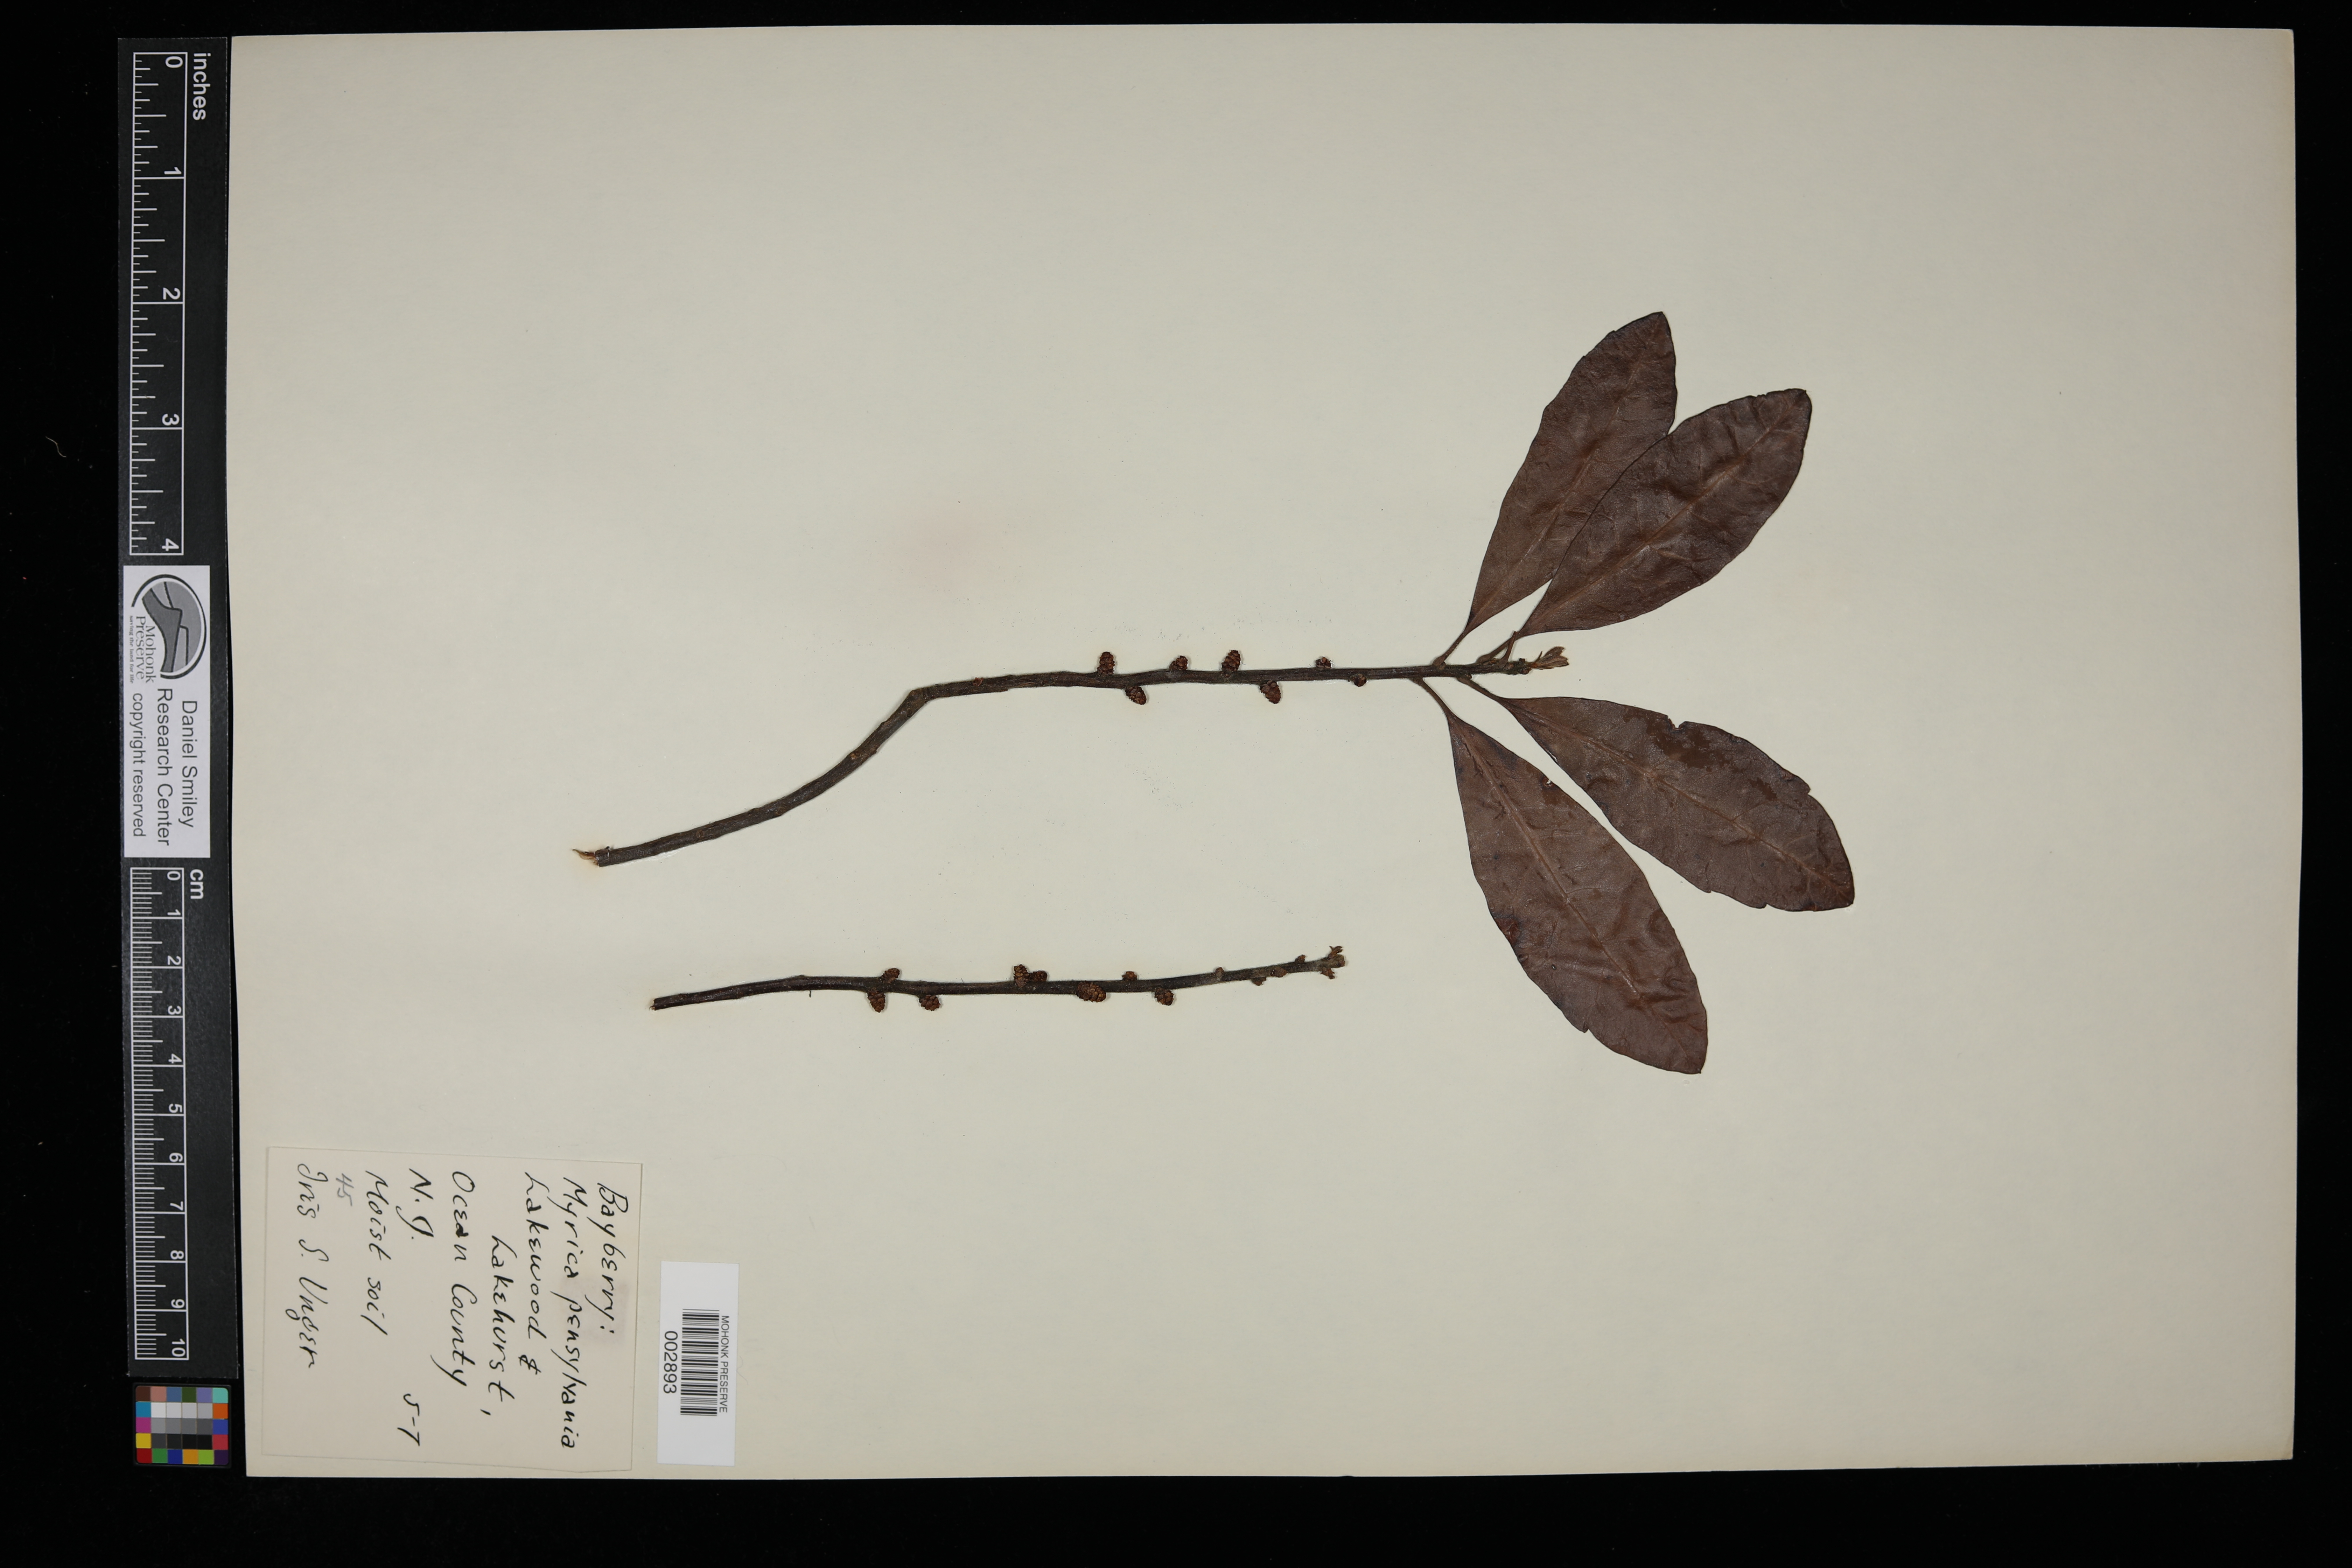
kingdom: Plantae
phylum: Tracheophyta
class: Magnoliopsida
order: Fagales
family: Myricaceae
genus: Morella
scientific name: Morella pensylvanica
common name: Northern bayberry
